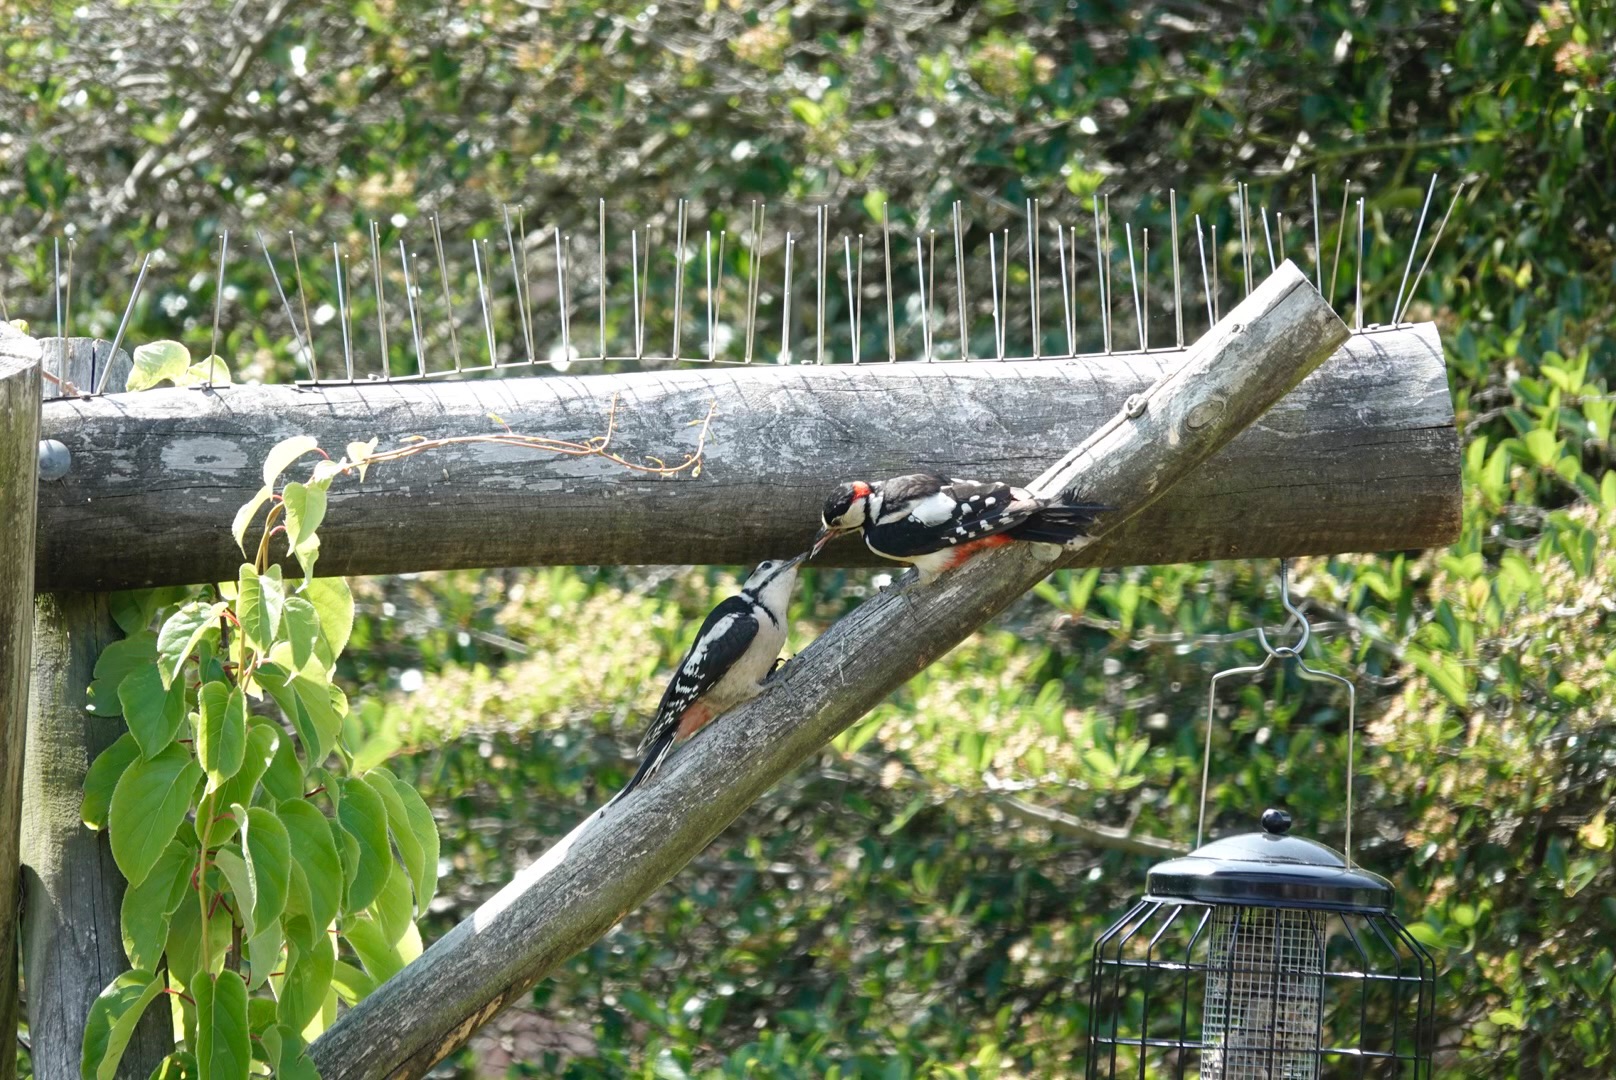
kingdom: Animalia
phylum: Chordata
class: Aves
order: Piciformes
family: Picidae
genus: Dendrocopos
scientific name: Dendrocopos major
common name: Stor flagspætte
